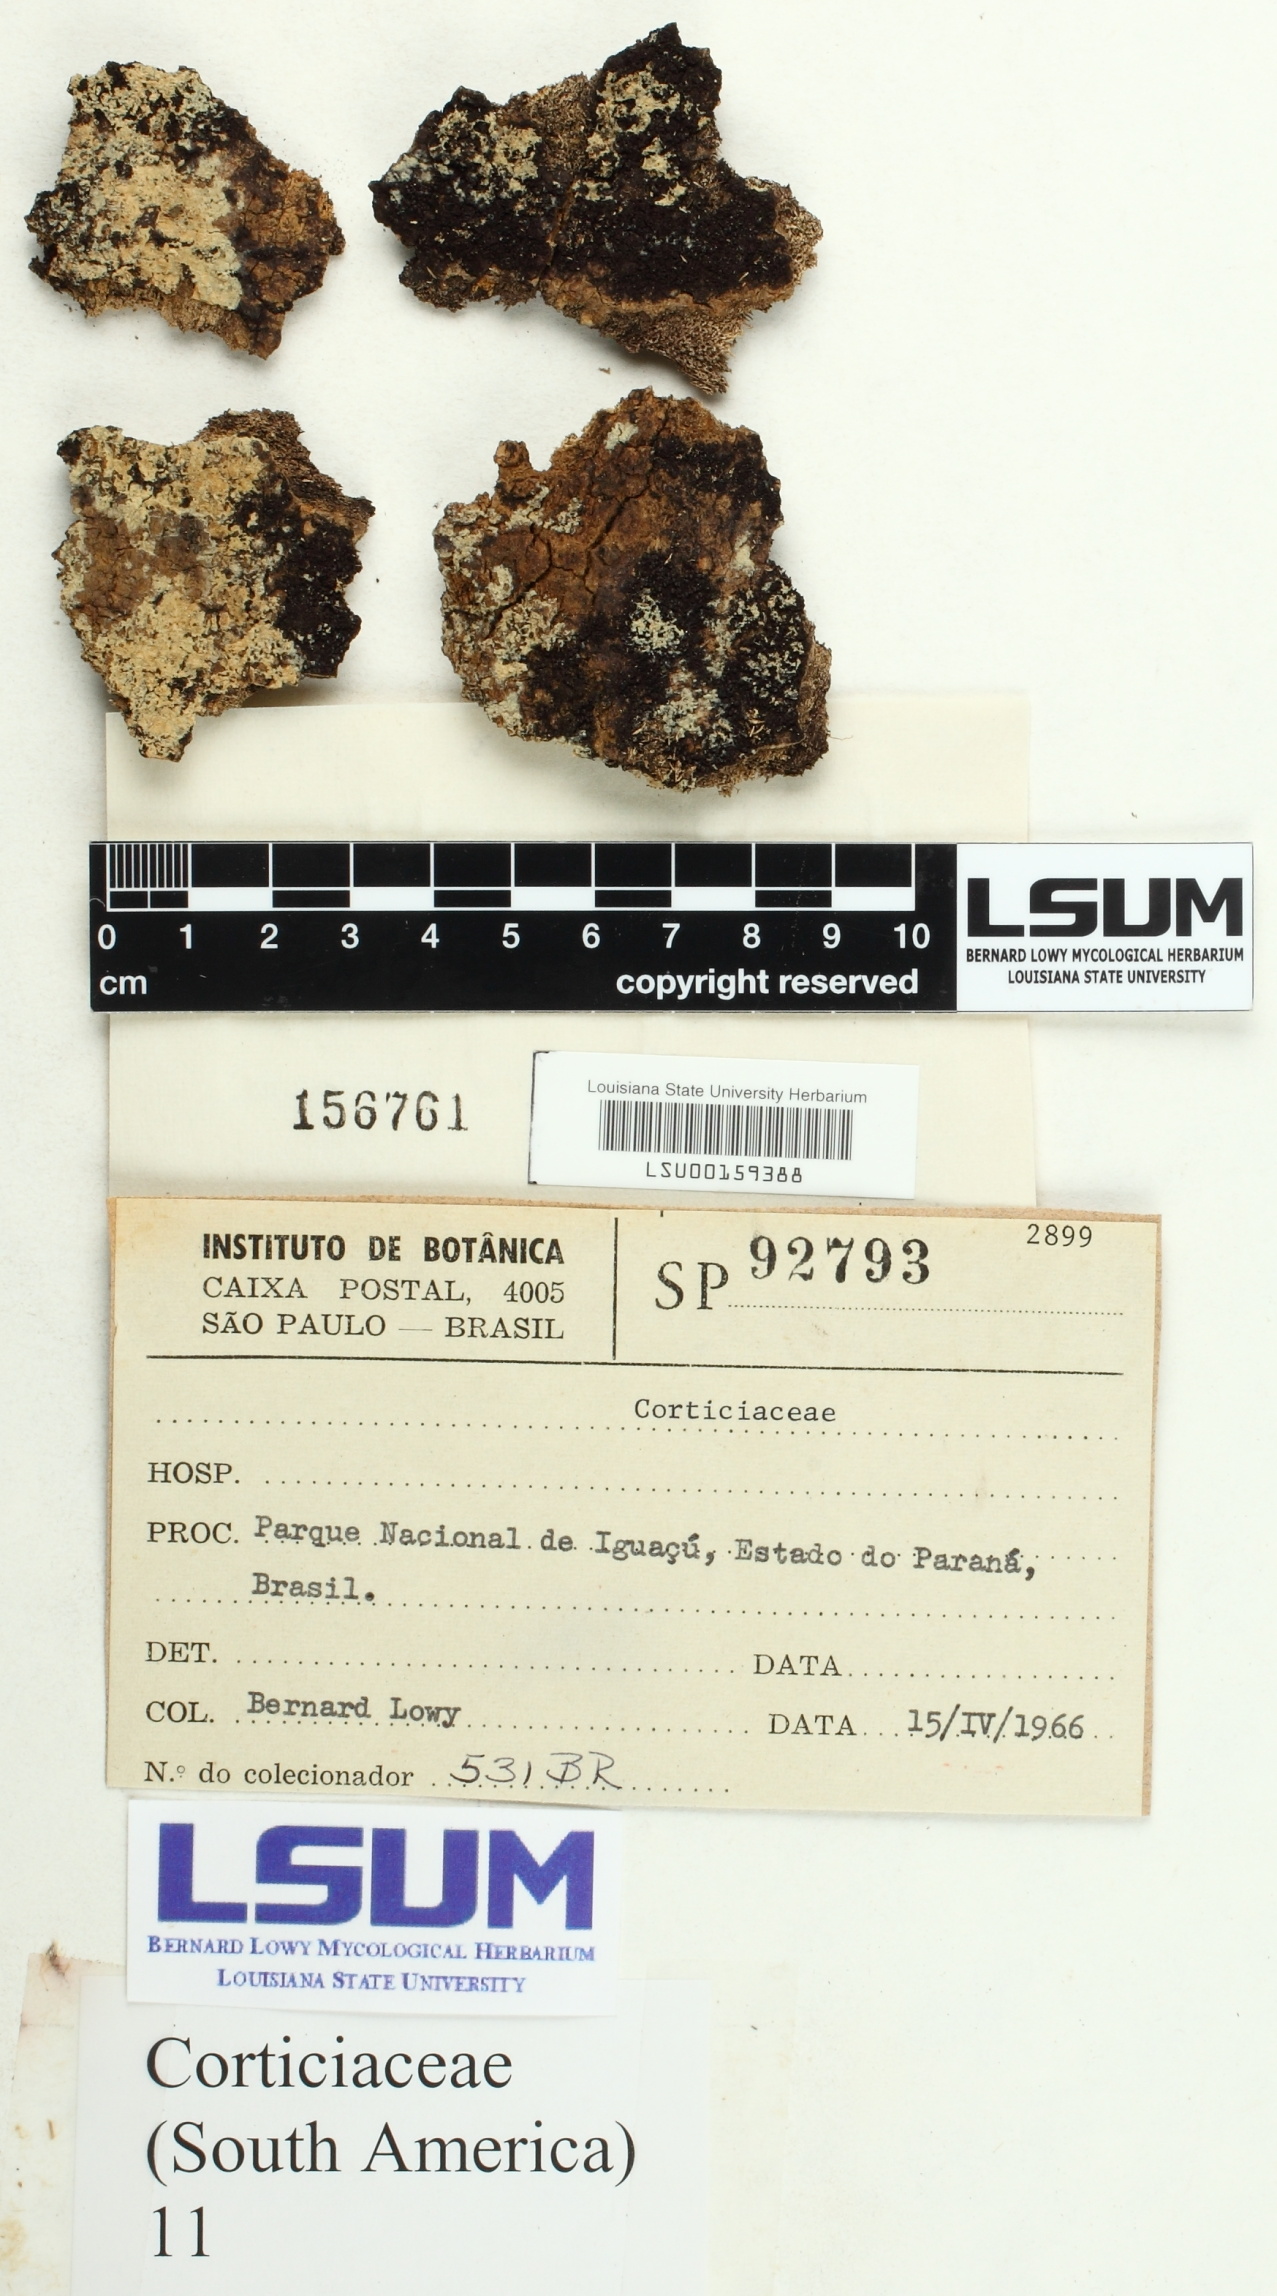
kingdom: Fungi
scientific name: Fungi
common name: Fungi
